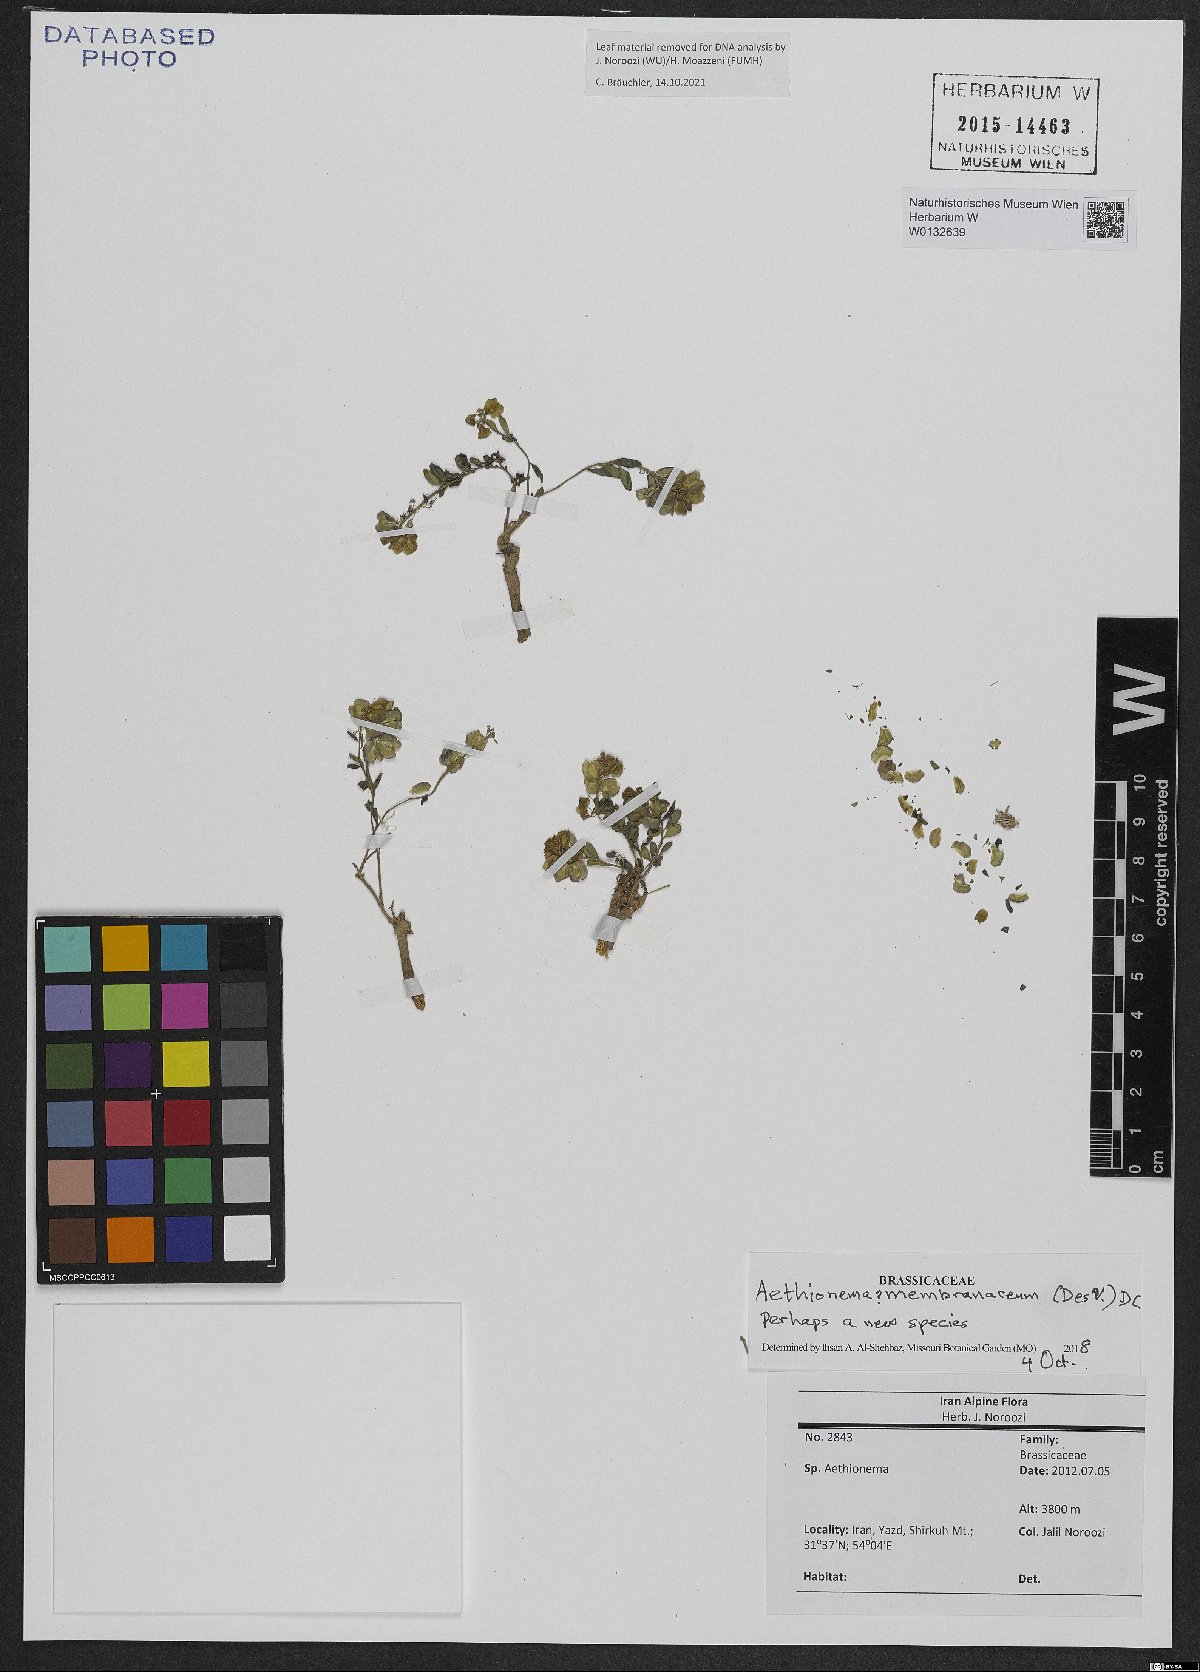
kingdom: Plantae
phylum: Tracheophyta
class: Magnoliopsida
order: Brassicales
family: Brassicaceae
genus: Aethionema
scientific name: Aethionema membranaceum
